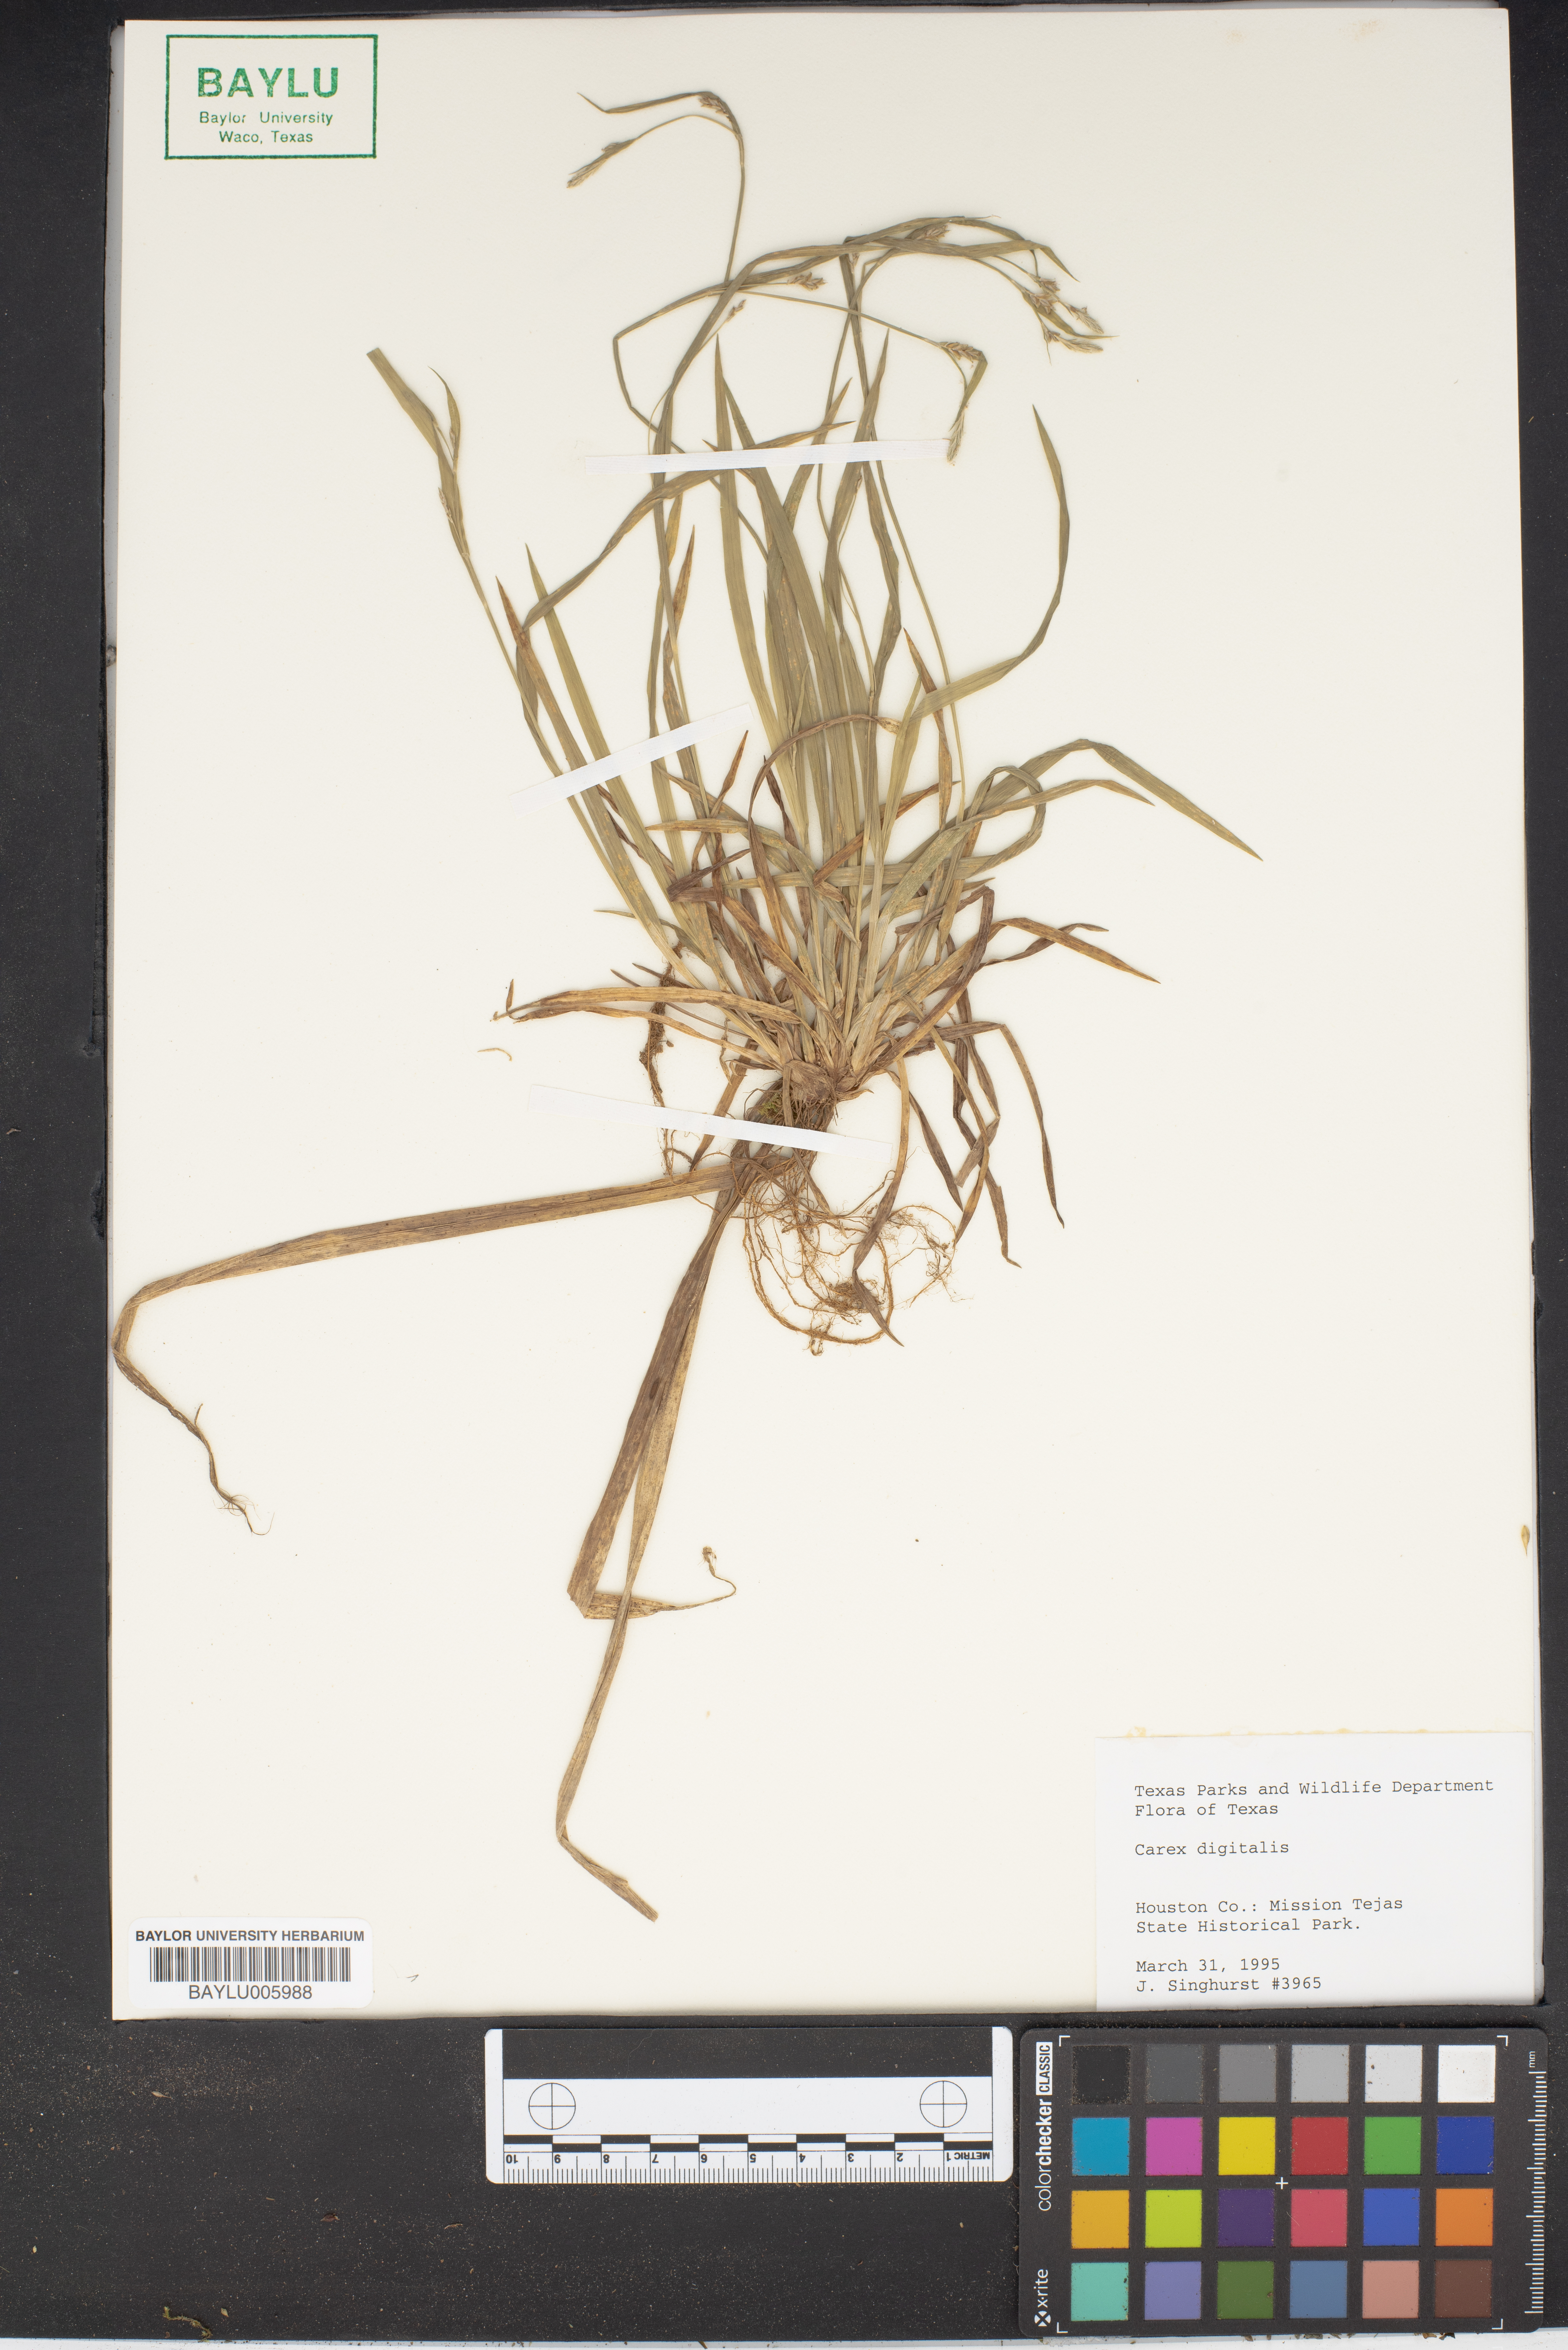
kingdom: Plantae
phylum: Tracheophyta
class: Liliopsida
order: Poales
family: Cyperaceae
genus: Carex
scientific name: Carex digitalis
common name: Slender wood sedge
